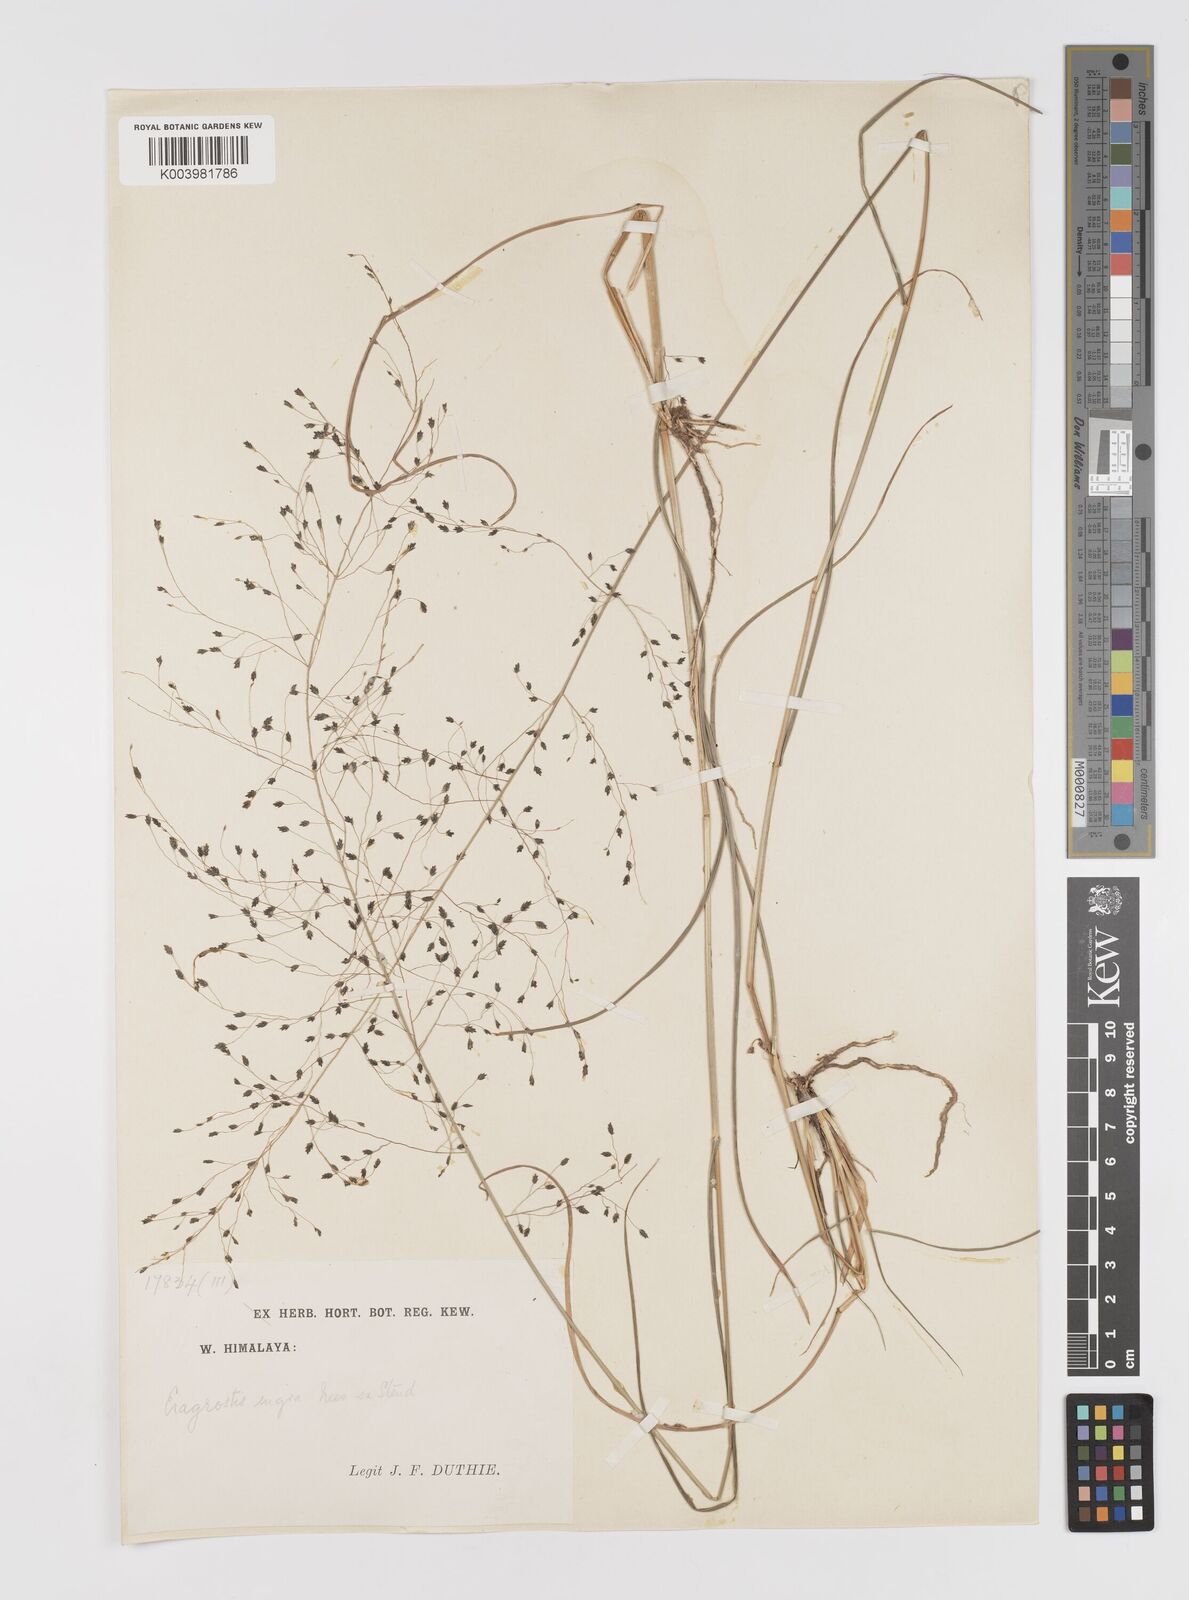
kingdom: Plantae
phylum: Tracheophyta
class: Liliopsida
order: Poales
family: Poaceae
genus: Eragrostis
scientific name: Eragrostis nigra
